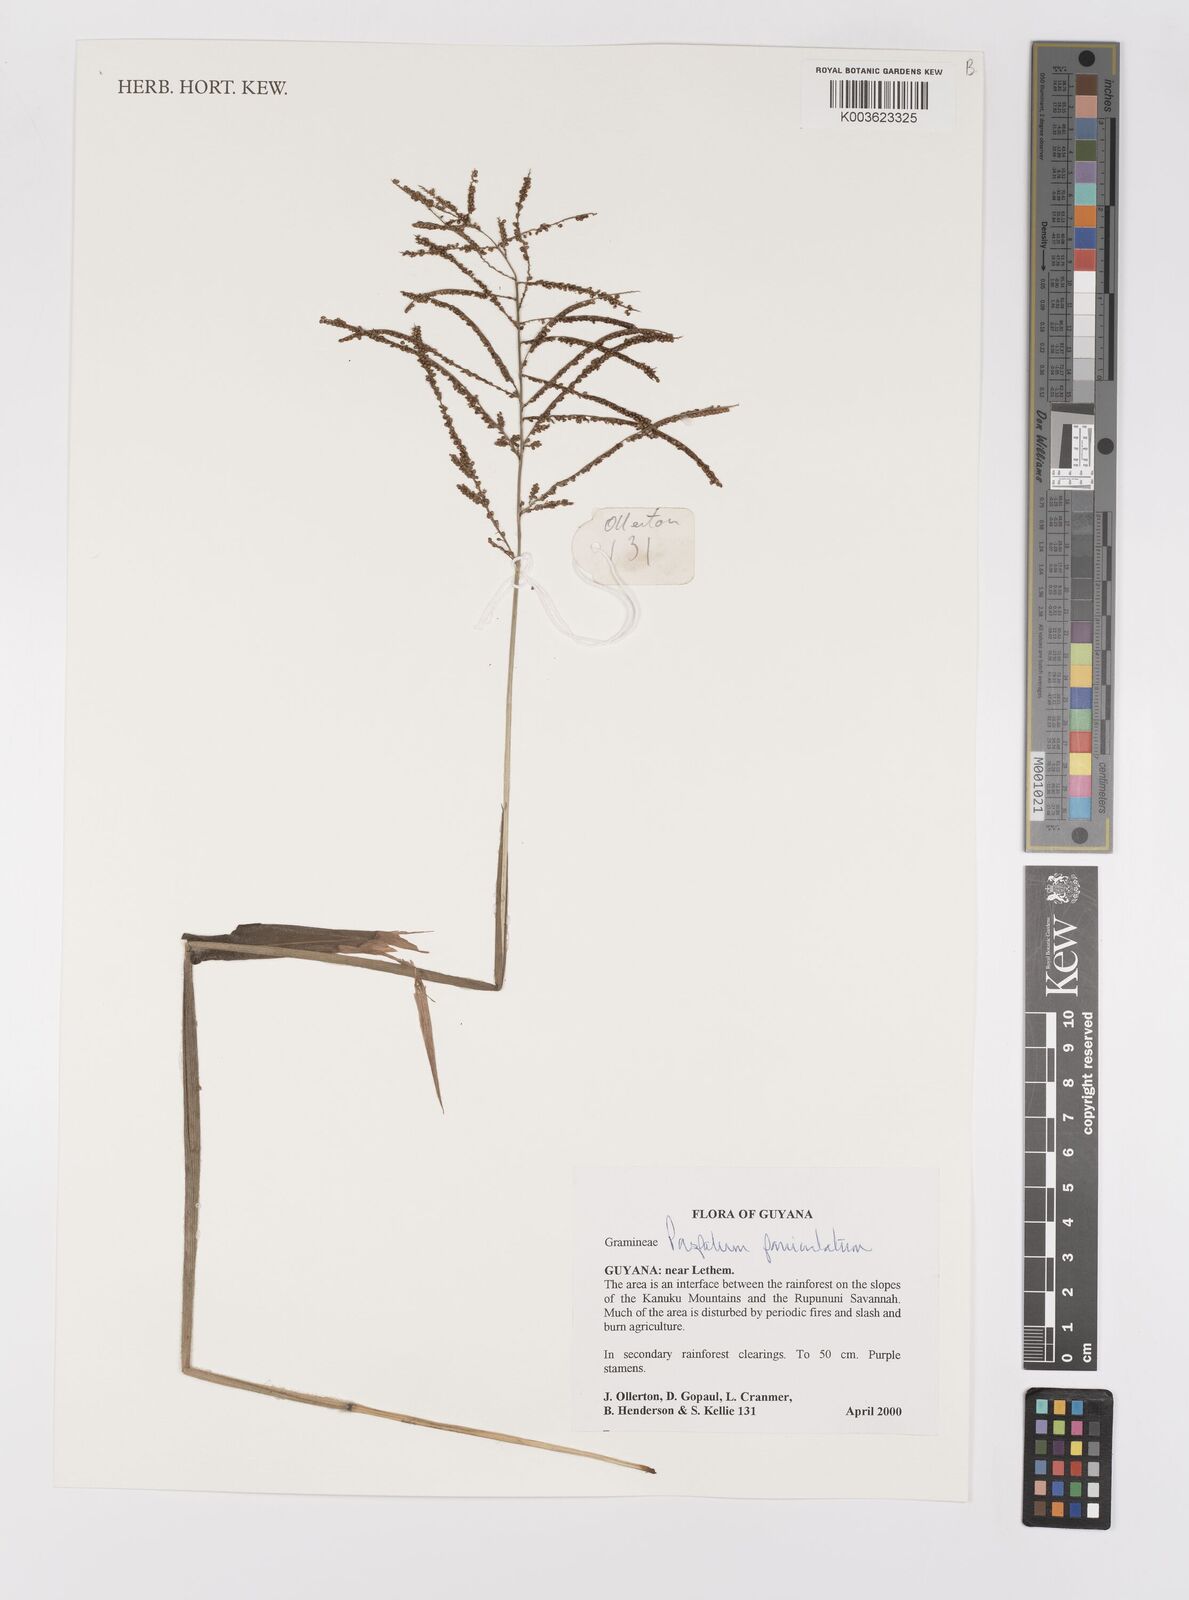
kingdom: Plantae
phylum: Tracheophyta
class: Liliopsida
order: Poales
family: Poaceae
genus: Paspalum
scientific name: Paspalum paniculatum
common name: Arrocillo
